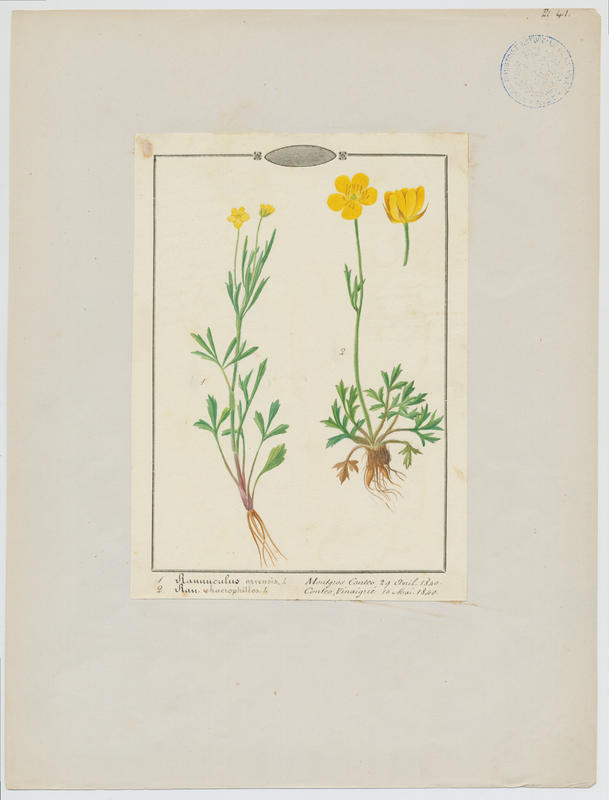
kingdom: Plantae
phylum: Tracheophyta
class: Magnoliopsida
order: Ranunculales
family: Ranunculaceae
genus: Ranunculus
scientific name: Ranunculus arvensis
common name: Corn buttercup
